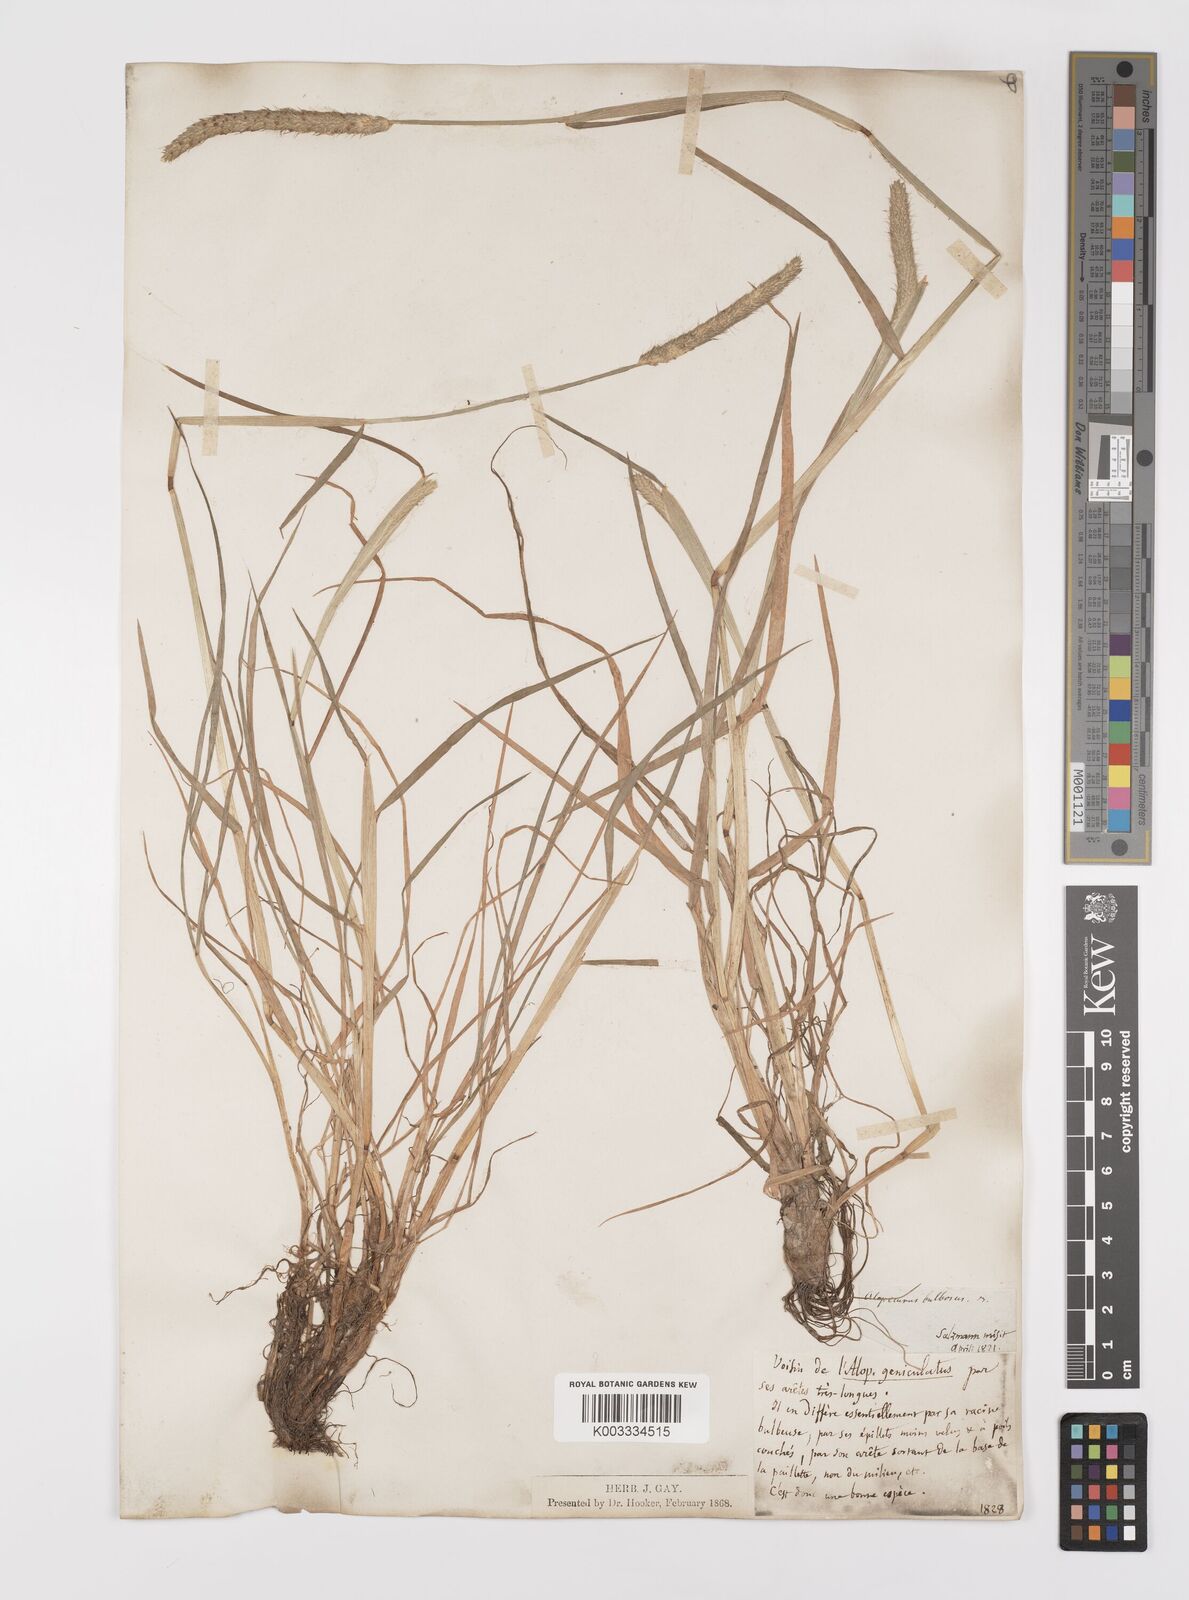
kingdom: Plantae
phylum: Tracheophyta
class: Liliopsida
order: Poales
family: Poaceae
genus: Alopecurus
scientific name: Alopecurus bulbosus
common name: Bulbous foxtail
